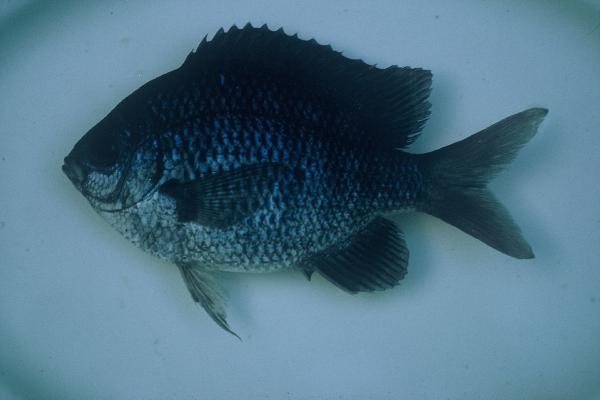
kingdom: Animalia
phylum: Chordata
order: Perciformes
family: Pomacentridae
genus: Abudefduf
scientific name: Abudefduf vaigiensis
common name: Indo-pacific sergeant
